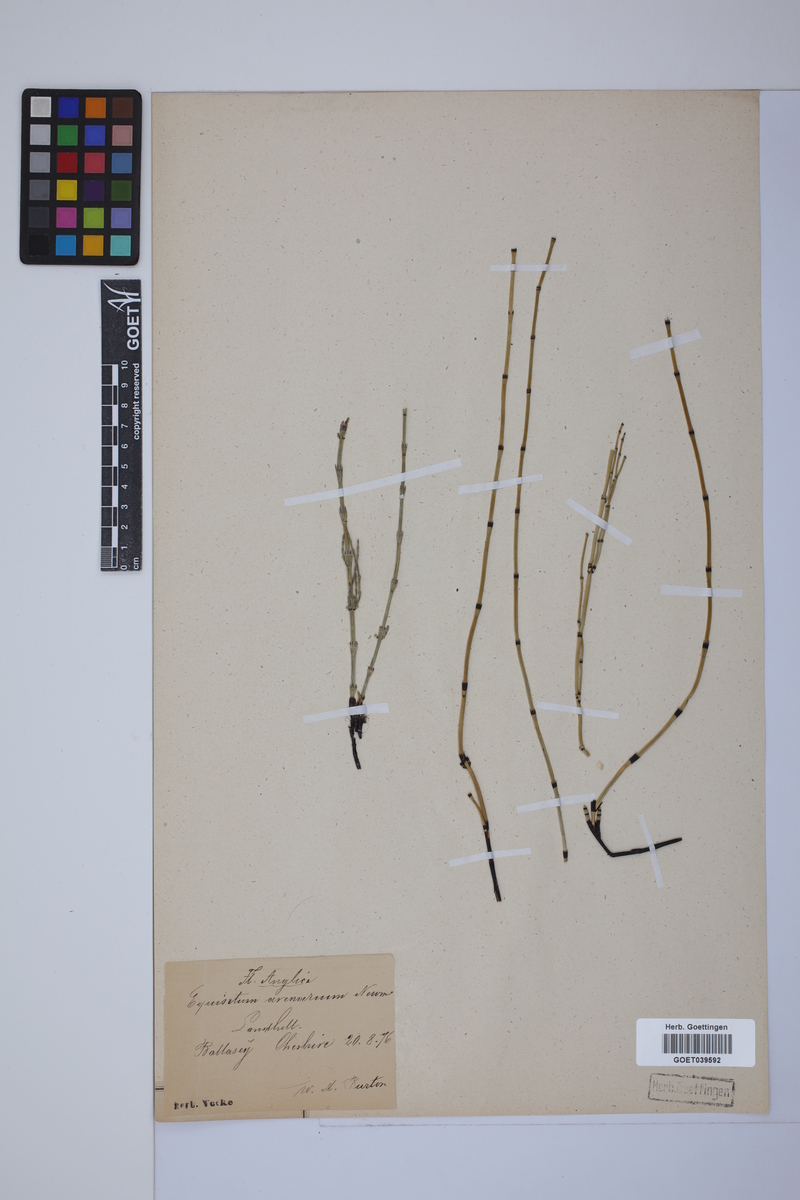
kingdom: Plantae
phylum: Tracheophyta
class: Polypodiopsida
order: Equisetales
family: Equisetaceae
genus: Equisetum
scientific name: Equisetum variegatum
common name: Variegated horsetail
